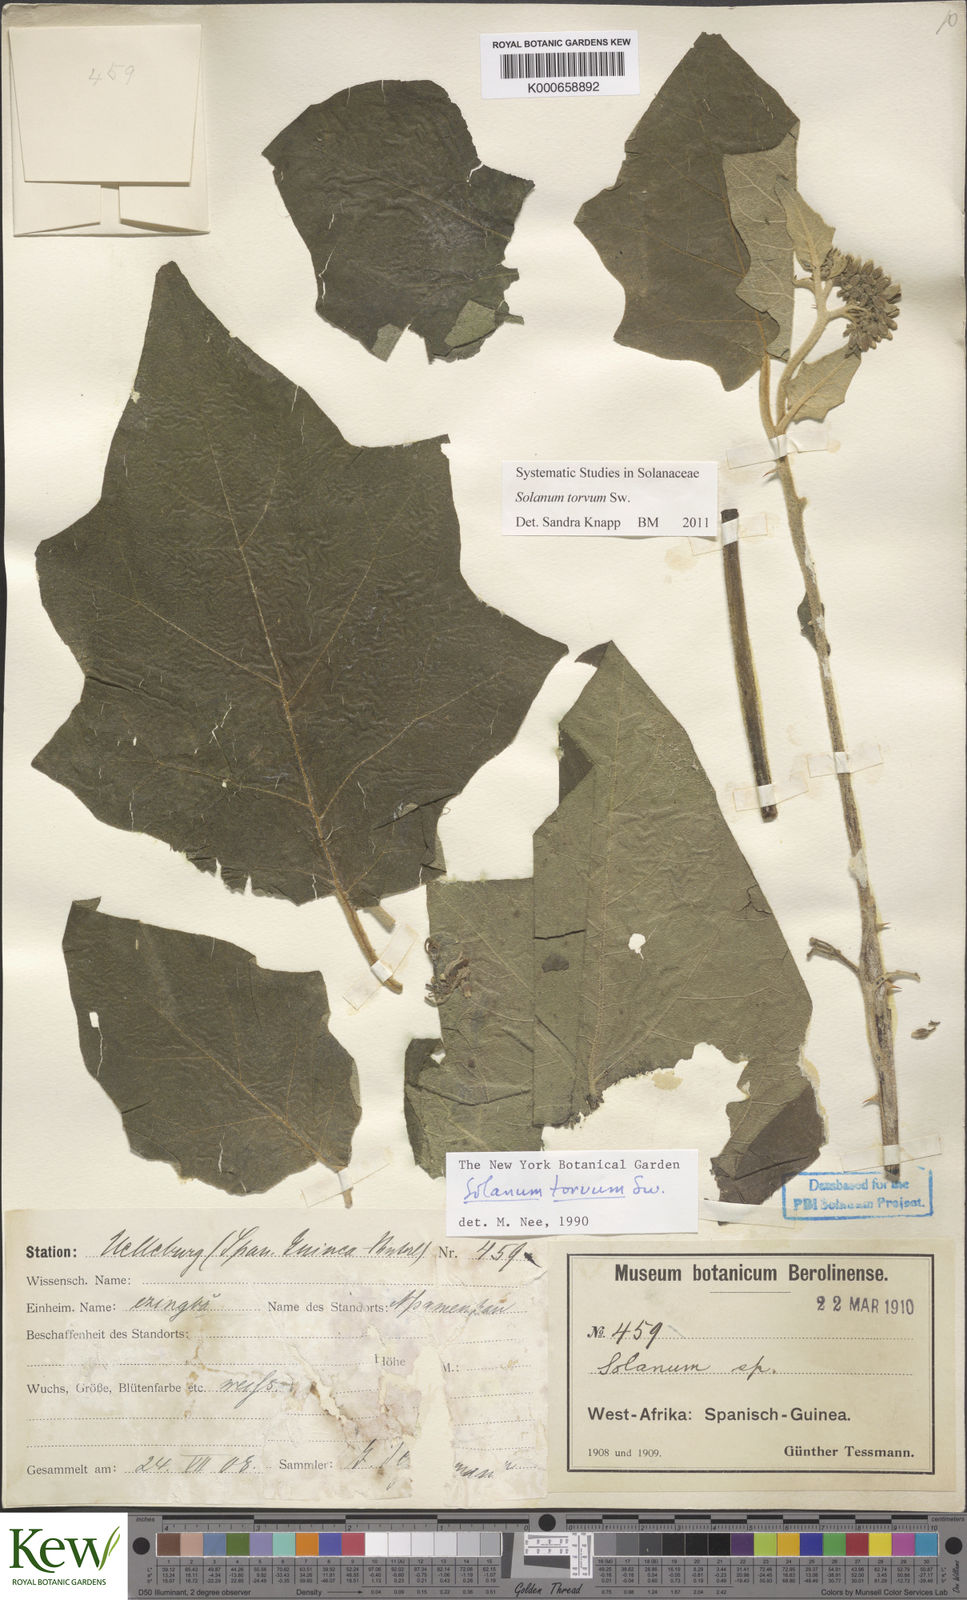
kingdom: Plantae
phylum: Tracheophyta
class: Magnoliopsida
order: Solanales
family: Solanaceae
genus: Solanum
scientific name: Solanum torvum
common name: Turkey berry
